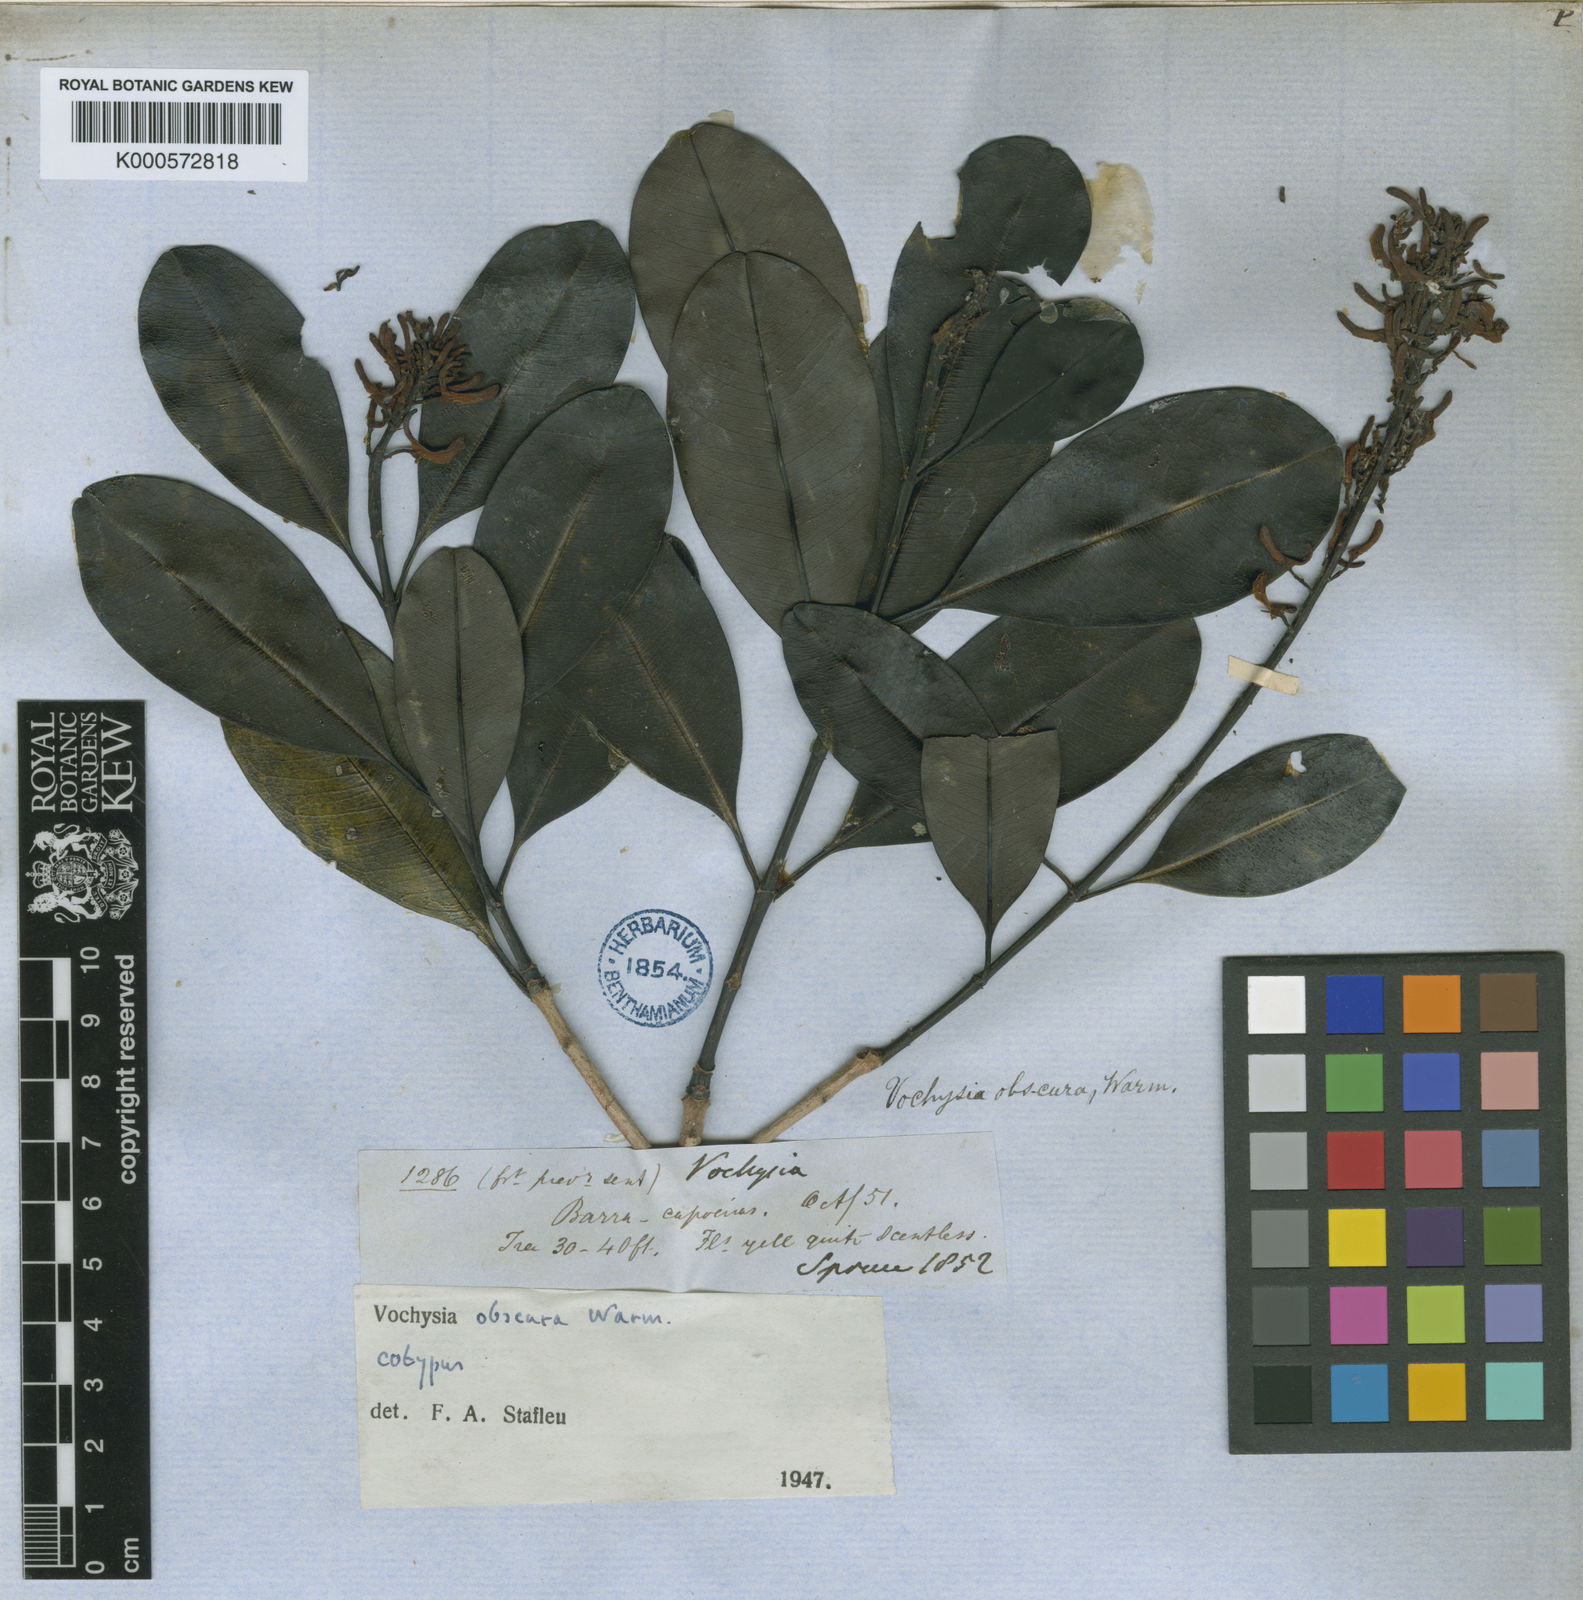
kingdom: Plantae
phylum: Tracheophyta
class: Magnoliopsida
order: Myrtales
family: Vochysiaceae
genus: Vochysia
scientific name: Vochysia obscura
